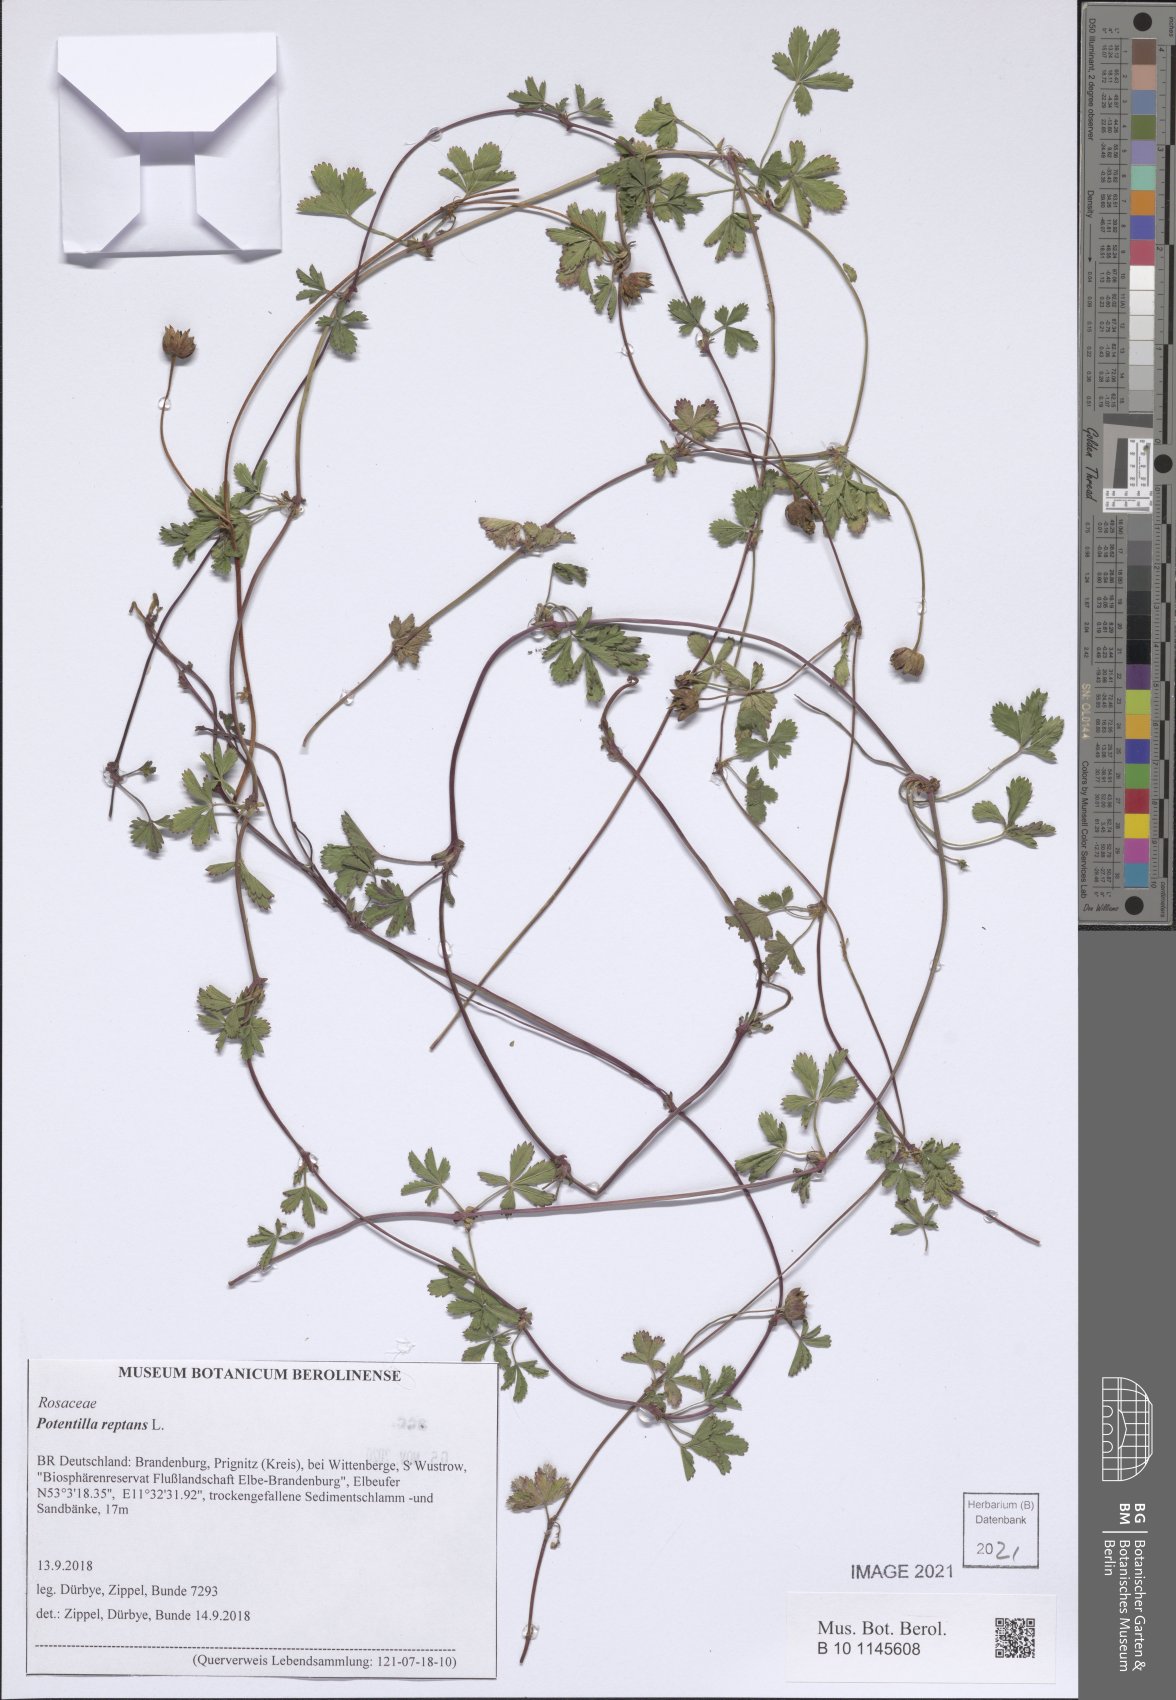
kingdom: Plantae
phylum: Tracheophyta
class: Magnoliopsida
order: Rosales
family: Rosaceae
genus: Potentilla
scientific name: Potentilla reptans
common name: Creeping cinquefoil
